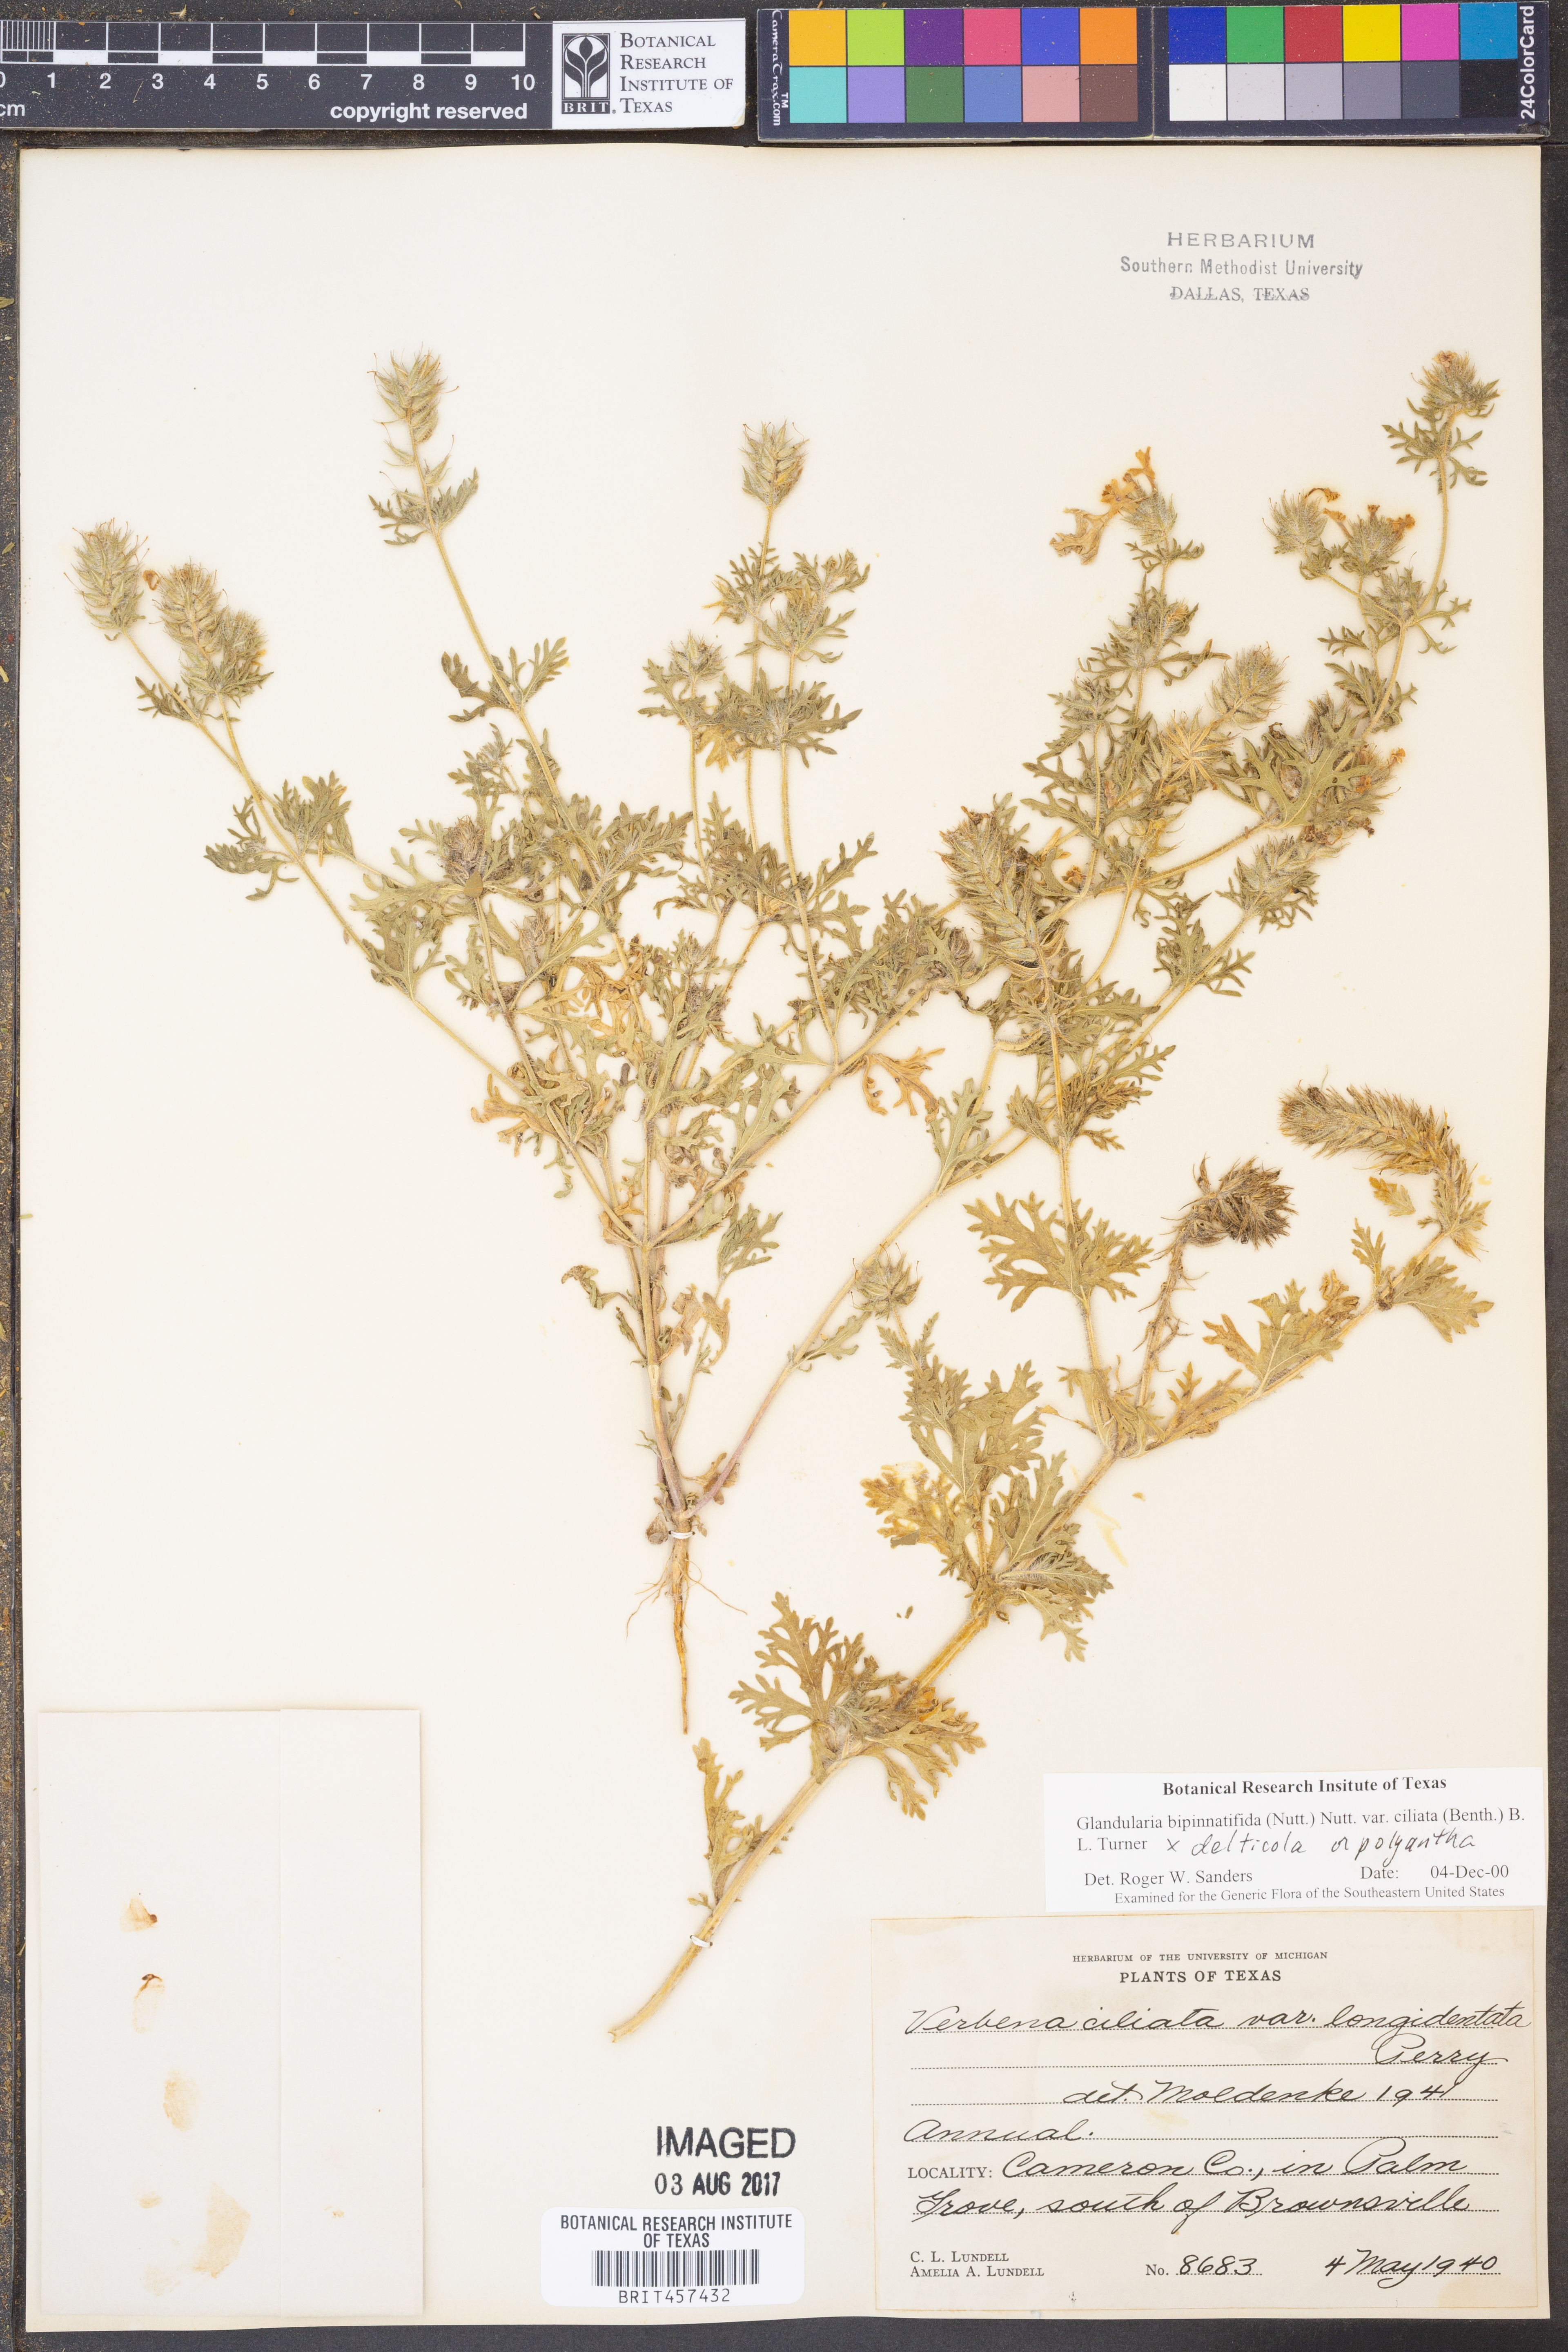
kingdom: Plantae
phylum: Tracheophyta
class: Magnoliopsida
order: Lamiales
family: Verbenaceae
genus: Verbena
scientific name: Verbena bipinnatifida
